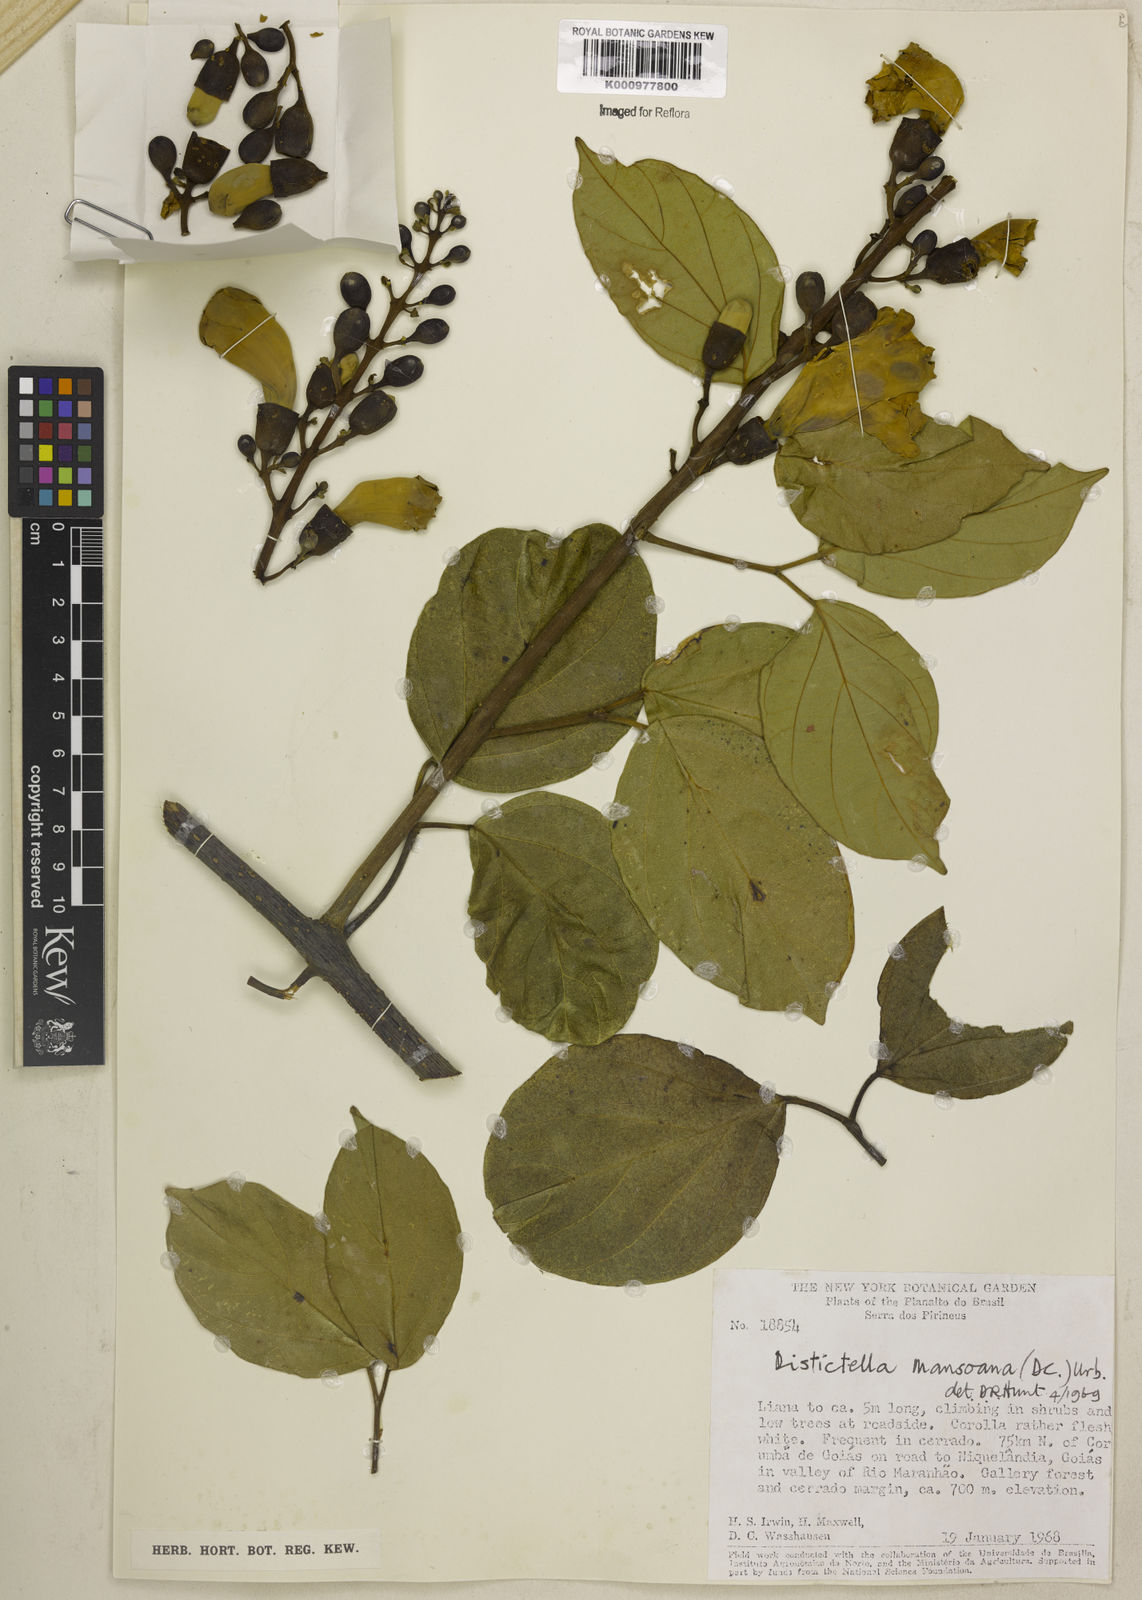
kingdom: Plantae
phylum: Tracheophyta
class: Magnoliopsida
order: Lamiales
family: Bignoniaceae
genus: Amphilophium
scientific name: Amphilophium mansoanum
